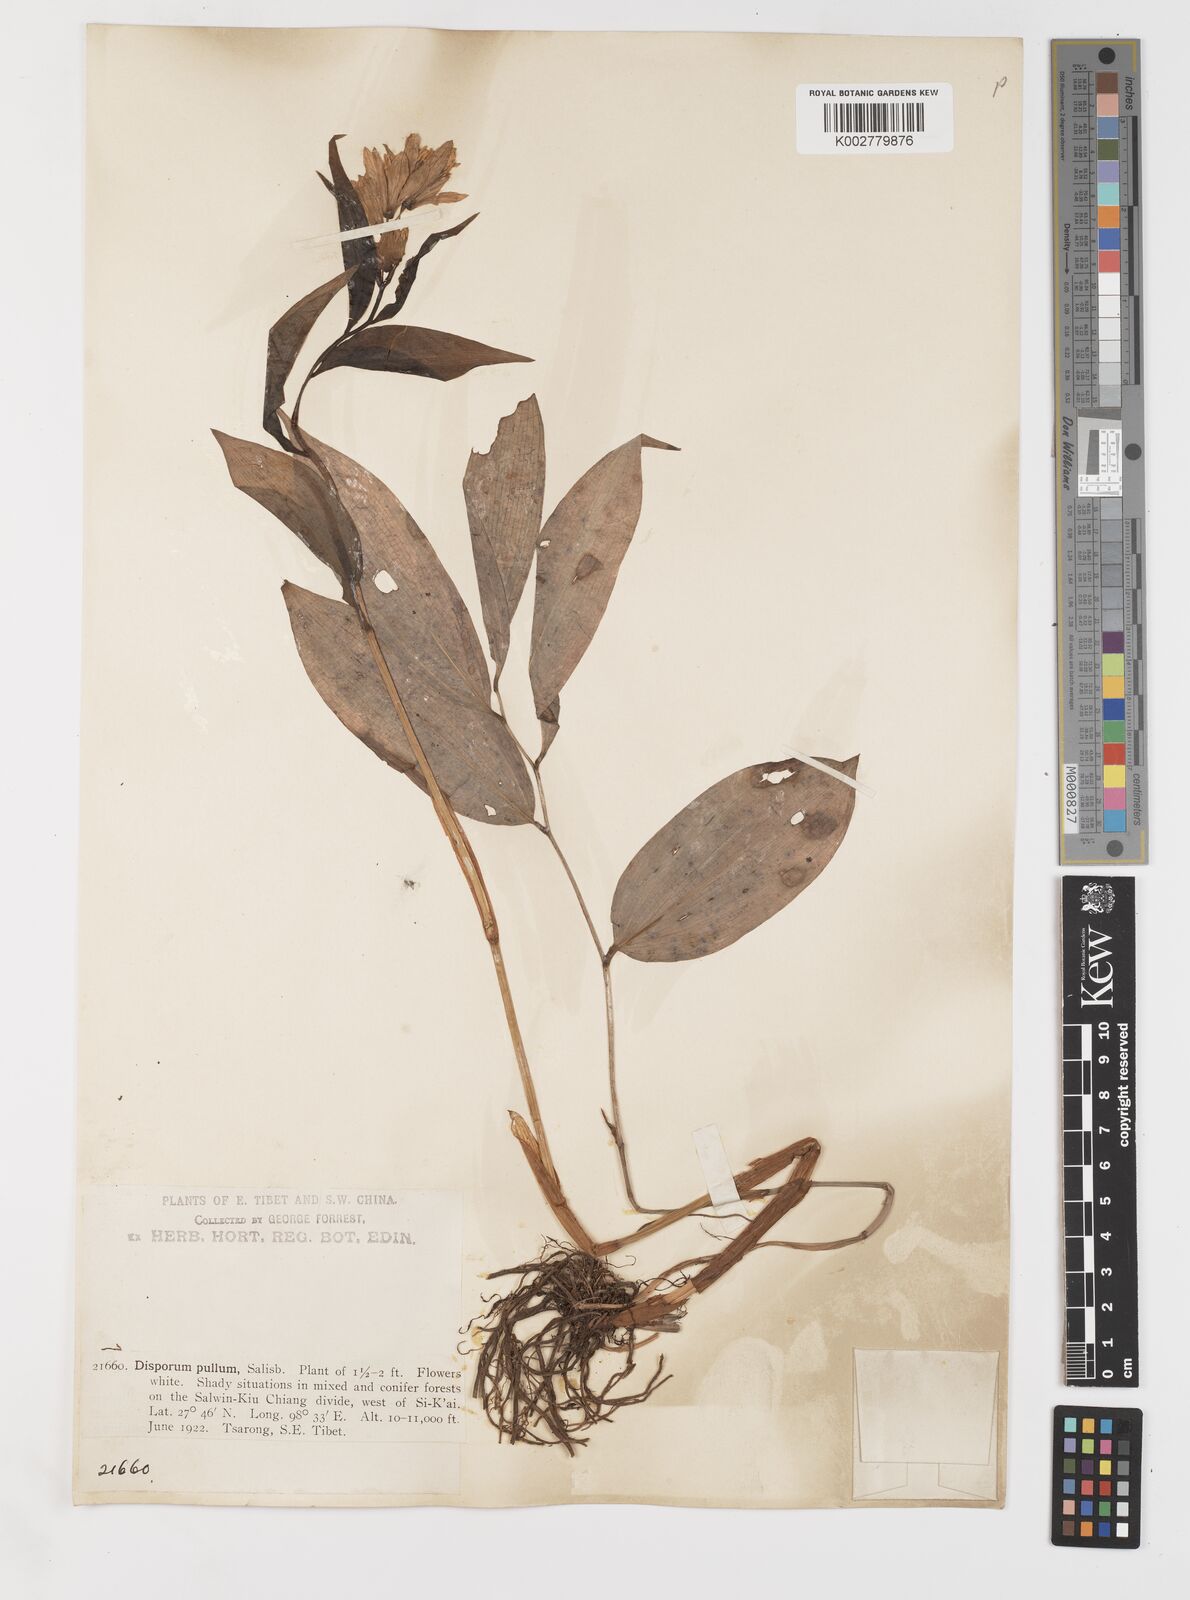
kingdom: Plantae
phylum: Tracheophyta
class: Liliopsida
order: Liliales
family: Colchicaceae
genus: Disporum
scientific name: Disporum
